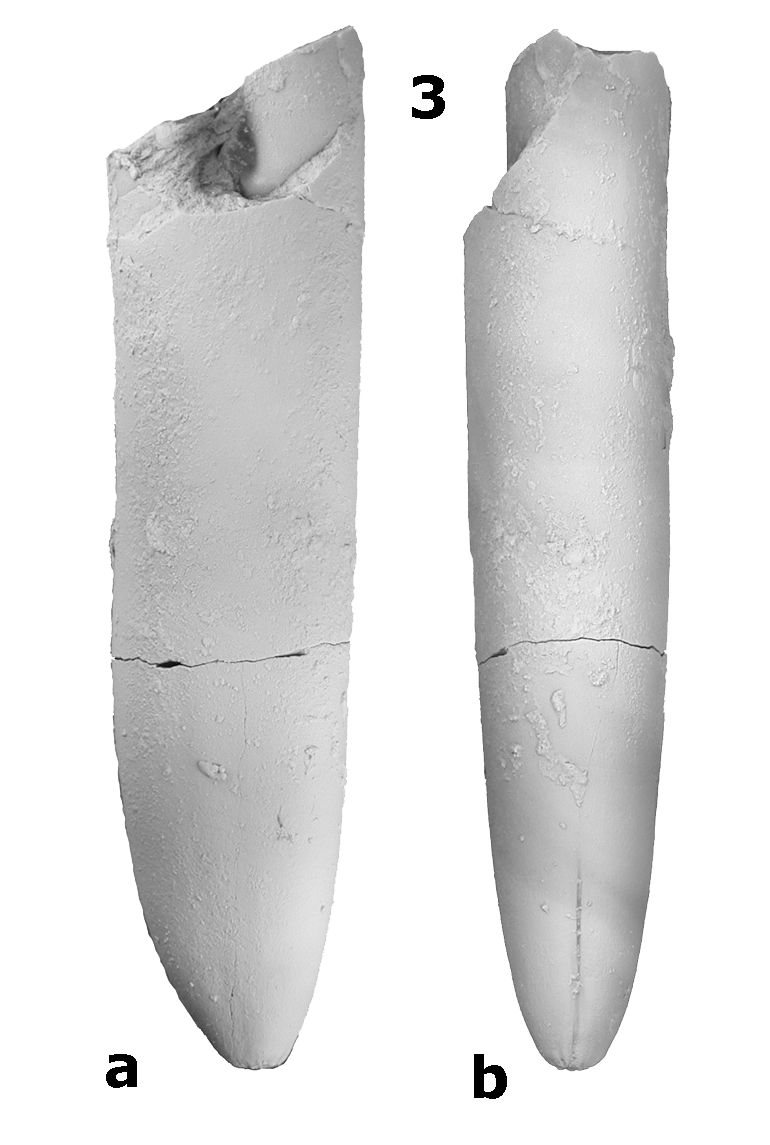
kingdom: Animalia
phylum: Mollusca
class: Cephalopoda
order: Belemnitida
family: Megateuthididae
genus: Dactyloteuthis
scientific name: Dactyloteuthis digitalis
